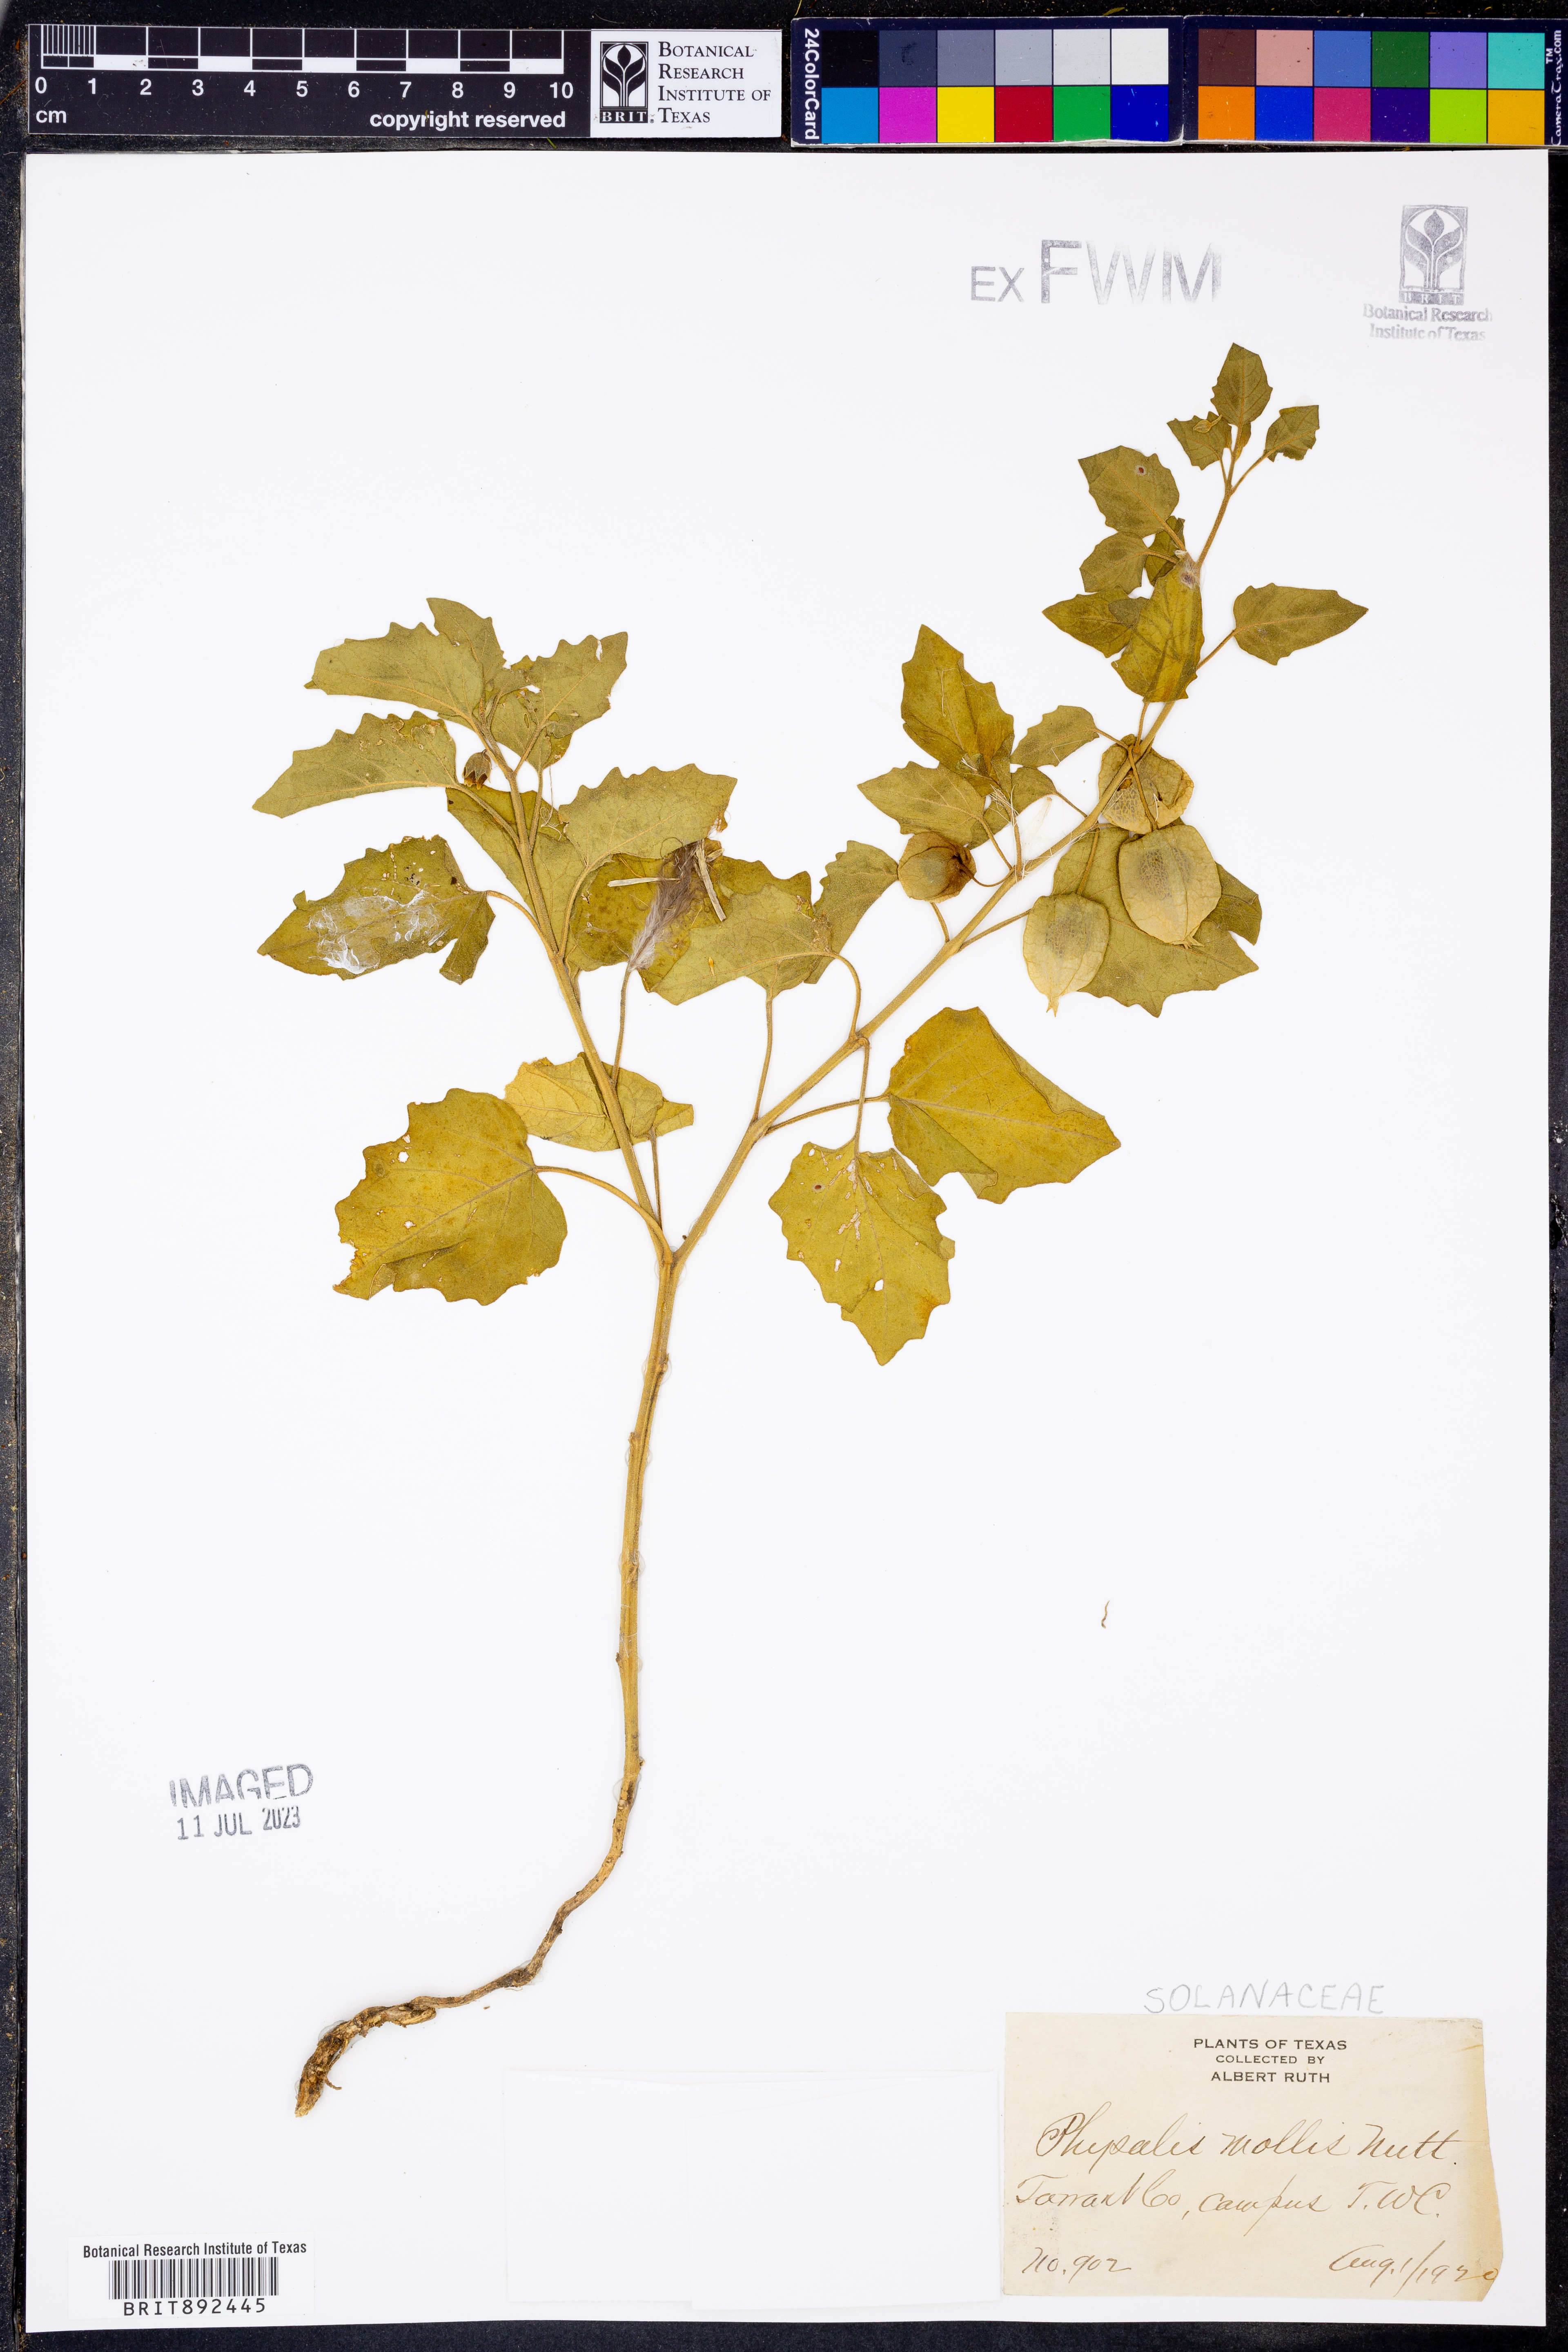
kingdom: Plantae
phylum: Tracheophyta
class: Magnoliopsida
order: Solanales
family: Solanaceae
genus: Physalis
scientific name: Physalis mollis
